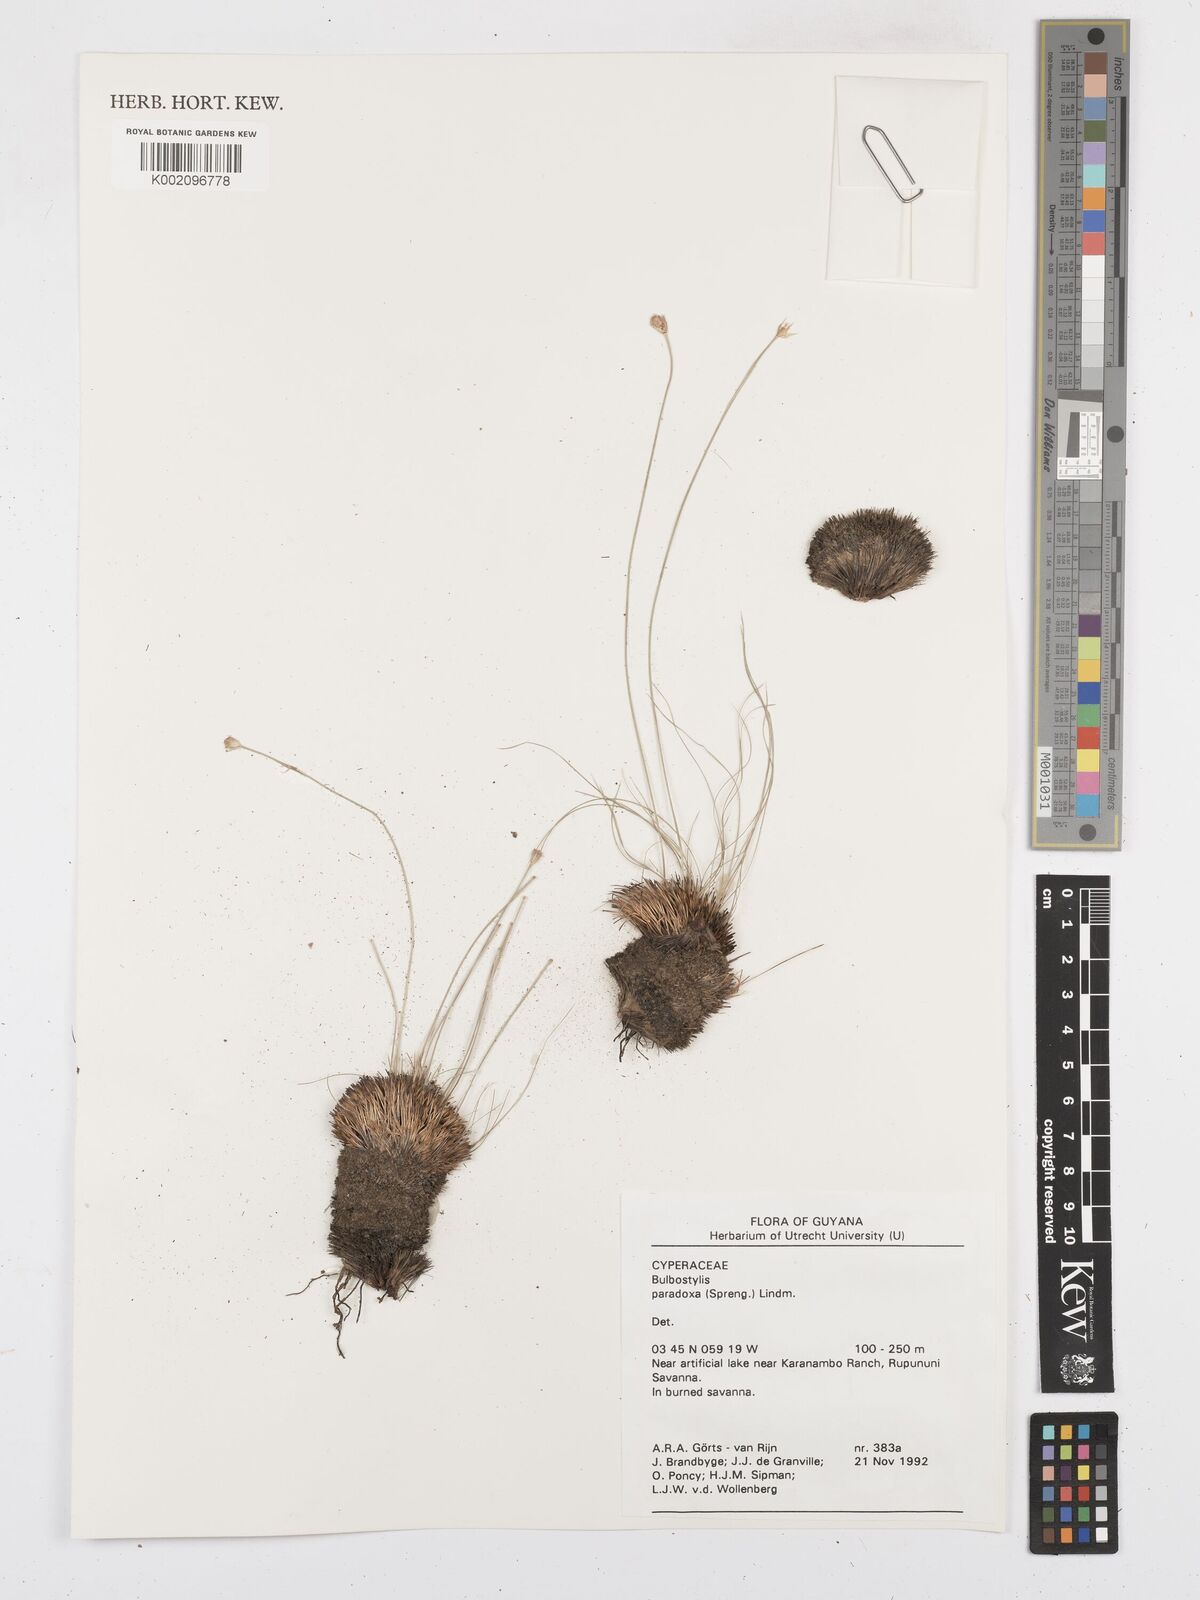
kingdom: Plantae
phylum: Tracheophyta
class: Liliopsida
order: Poales
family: Cyperaceae
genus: Bulbostylis
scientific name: Bulbostylis paradoxa
